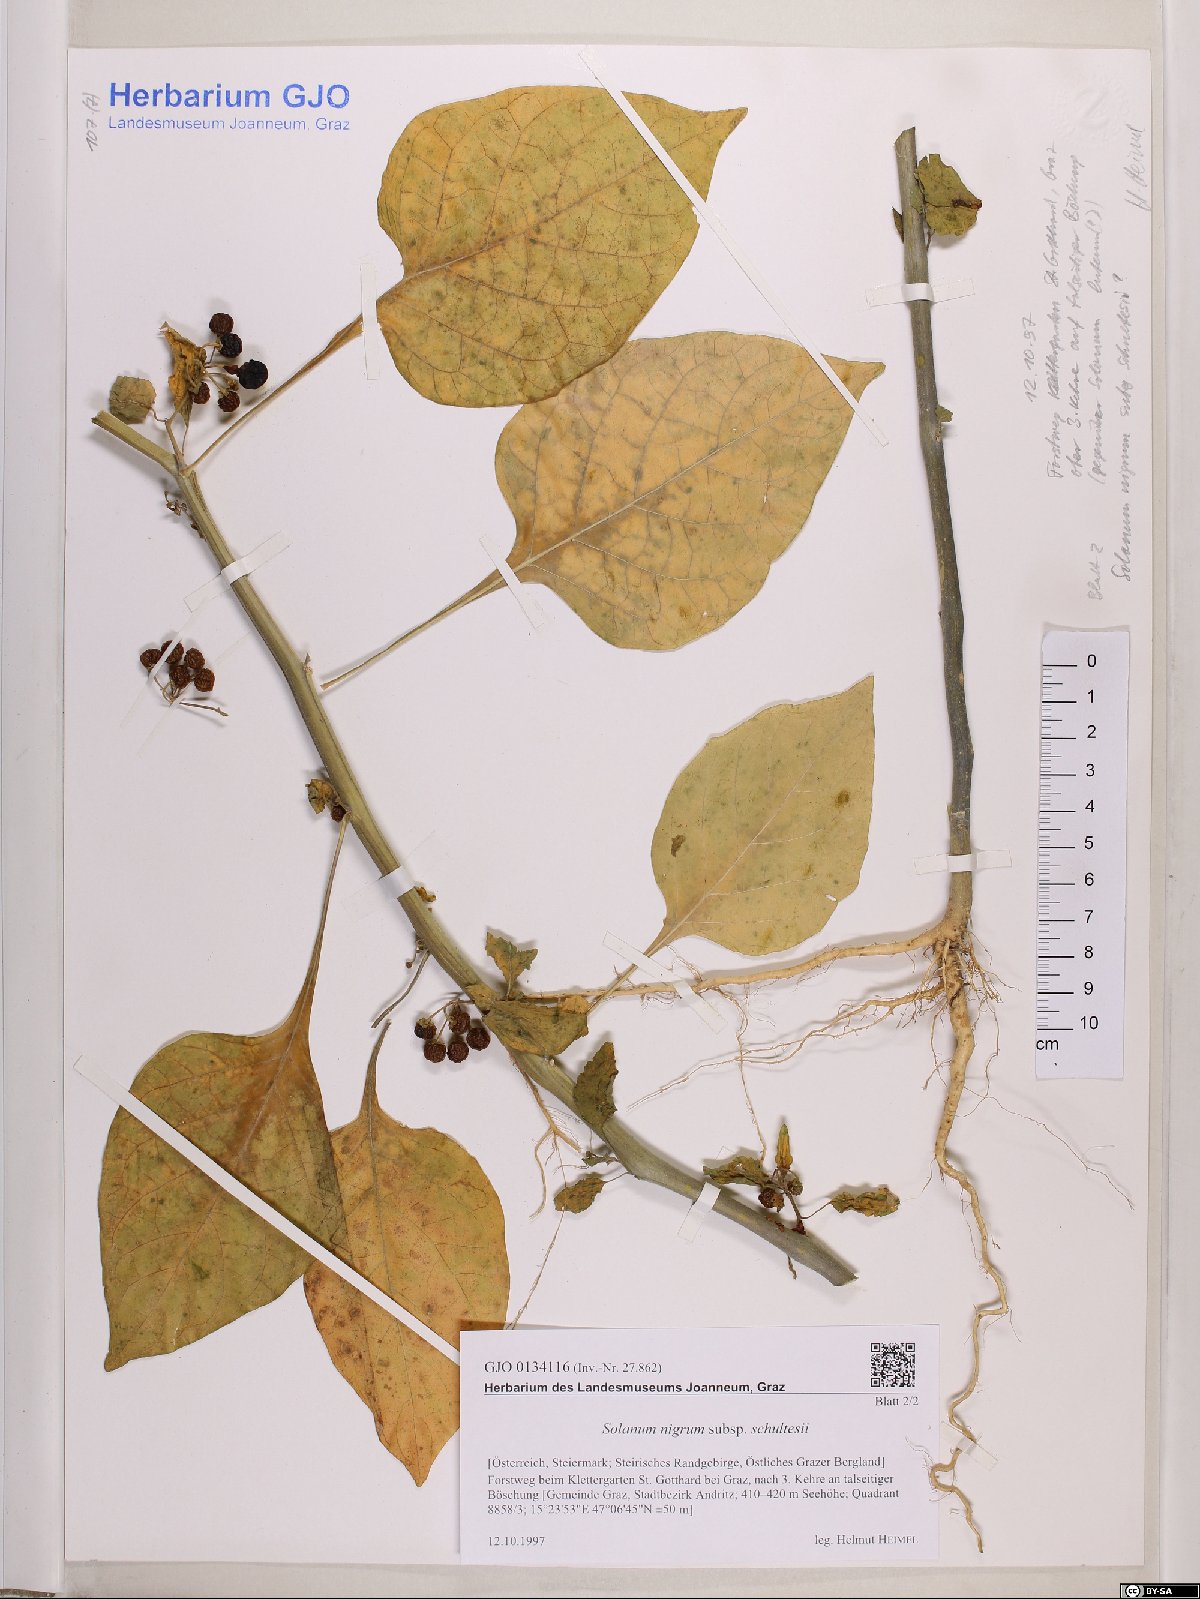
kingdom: Plantae
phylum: Tracheophyta
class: Magnoliopsida
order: Solanales
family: Solanaceae
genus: Solanum
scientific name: Solanum decipiens
